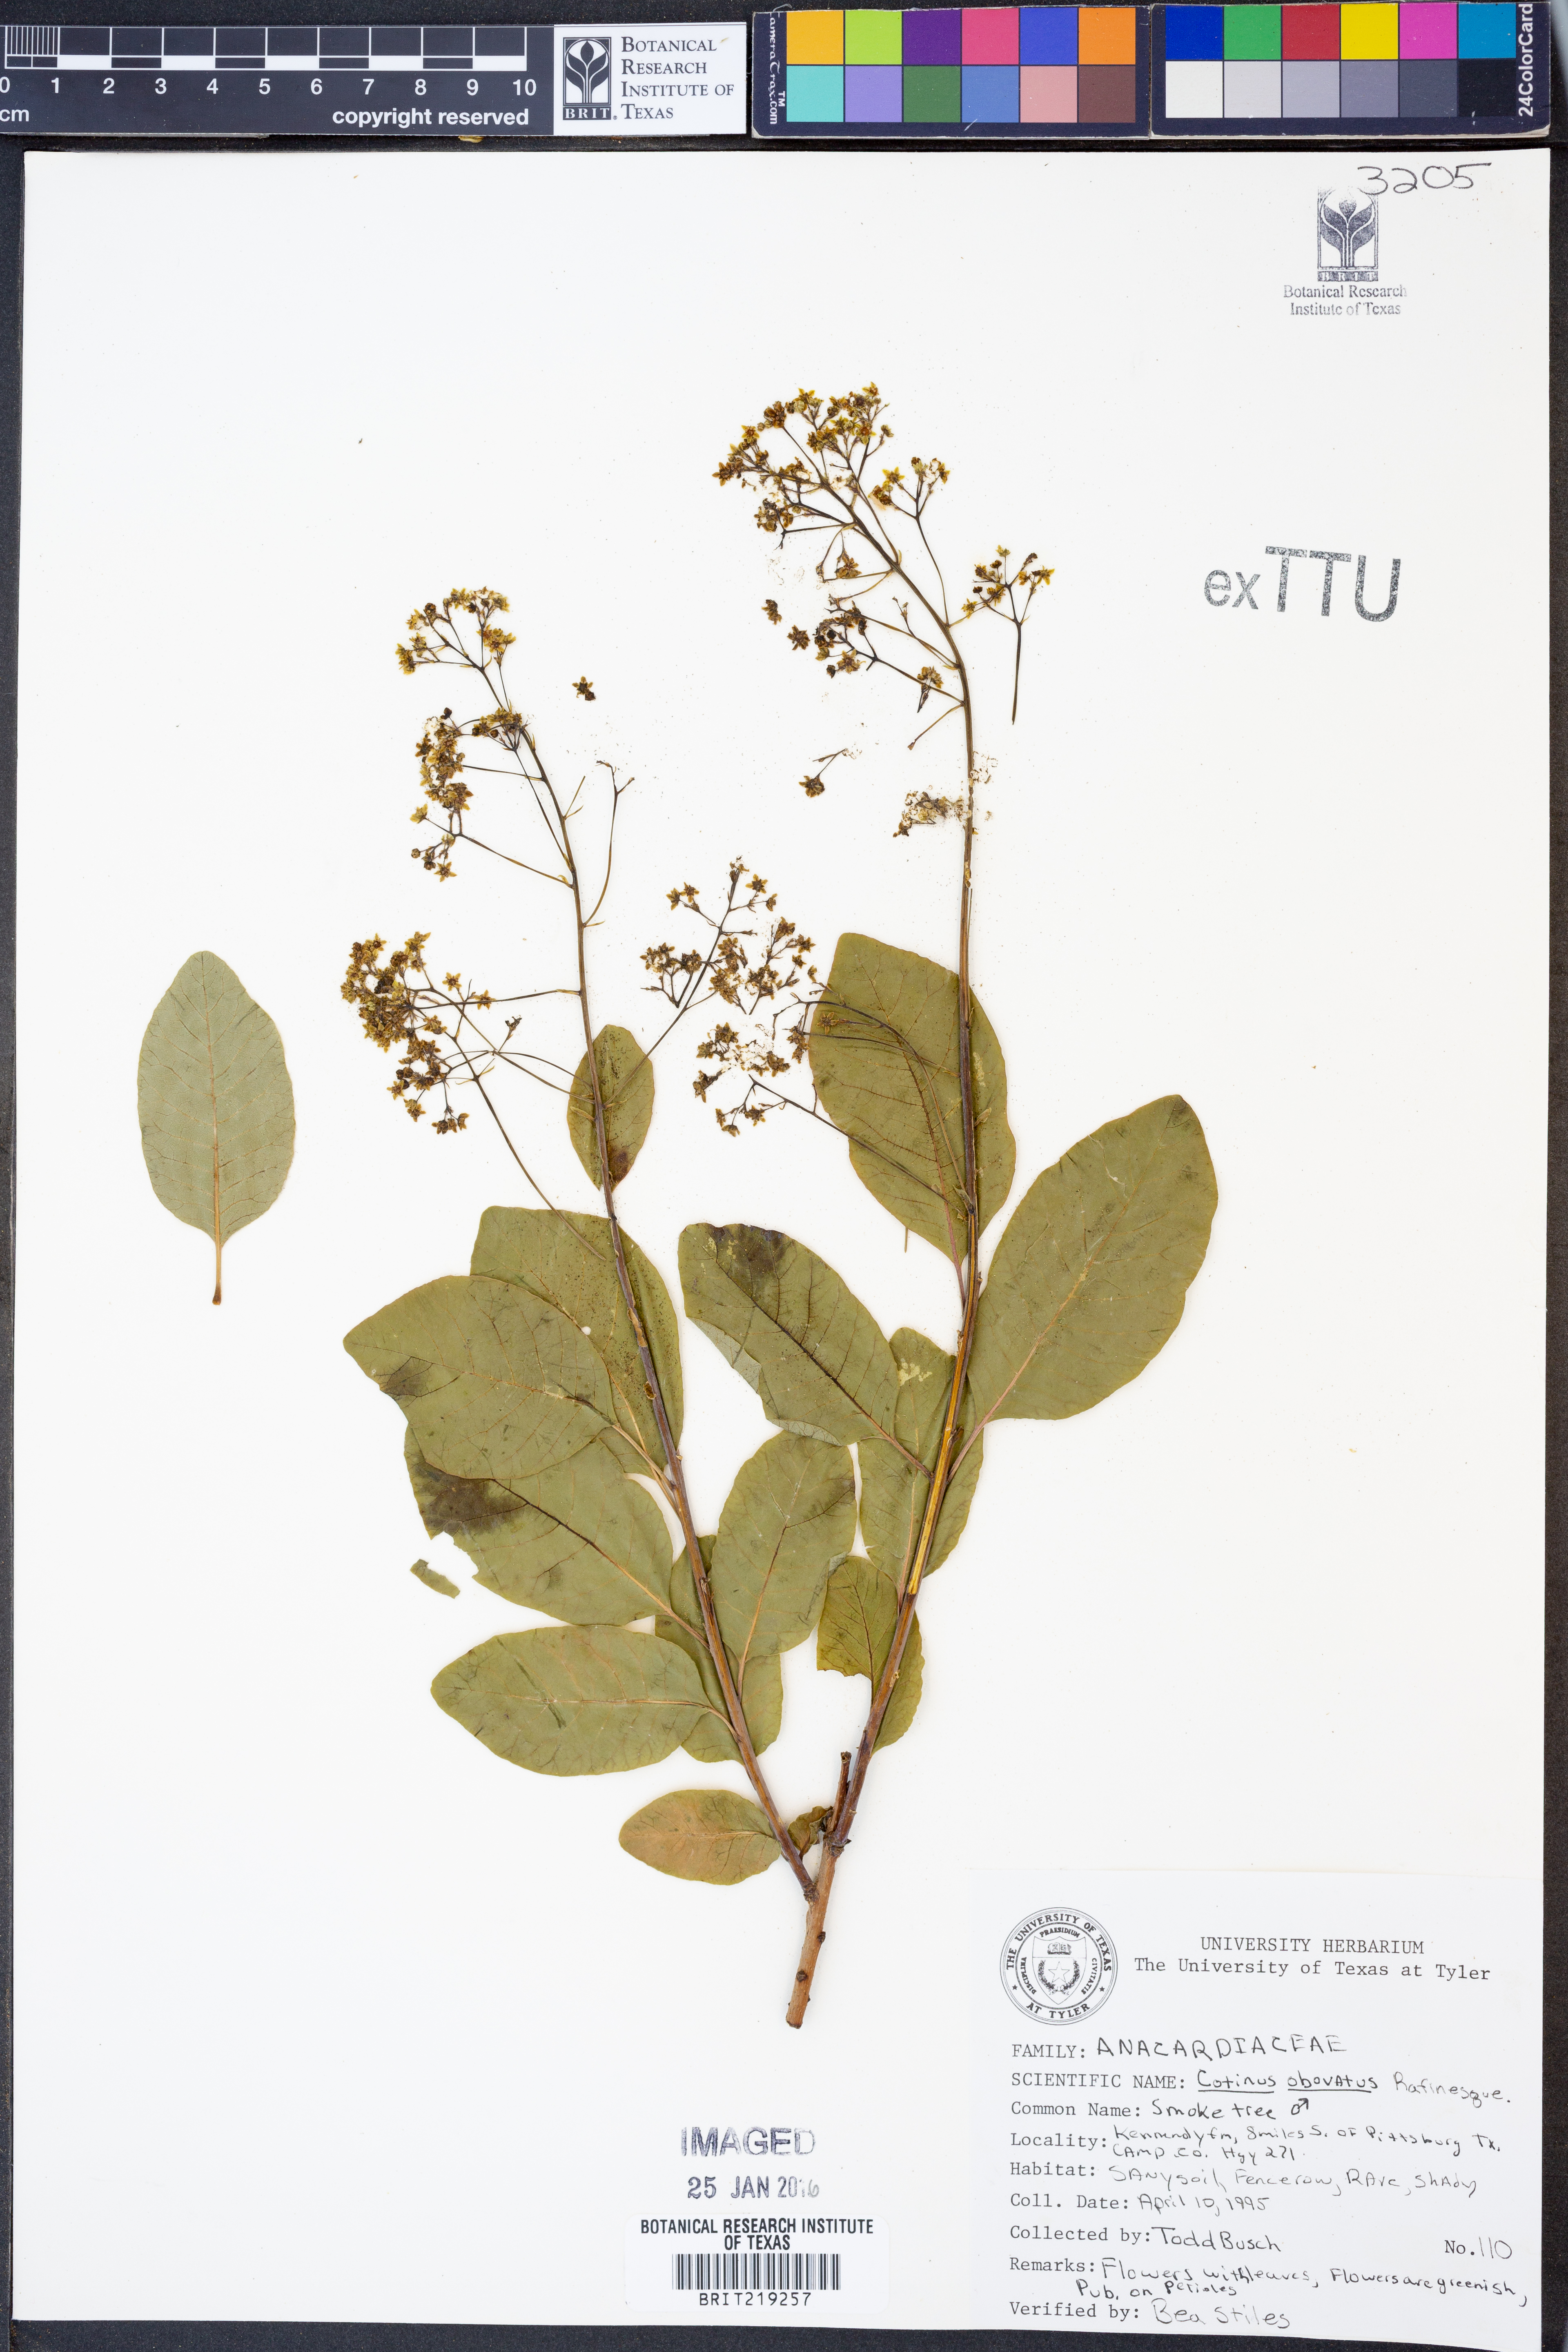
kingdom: Plantae
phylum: Tracheophyta
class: Magnoliopsida
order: Sapindales
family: Anacardiaceae
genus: Cotinus
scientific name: Cotinus obovatus
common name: Chittamwood
